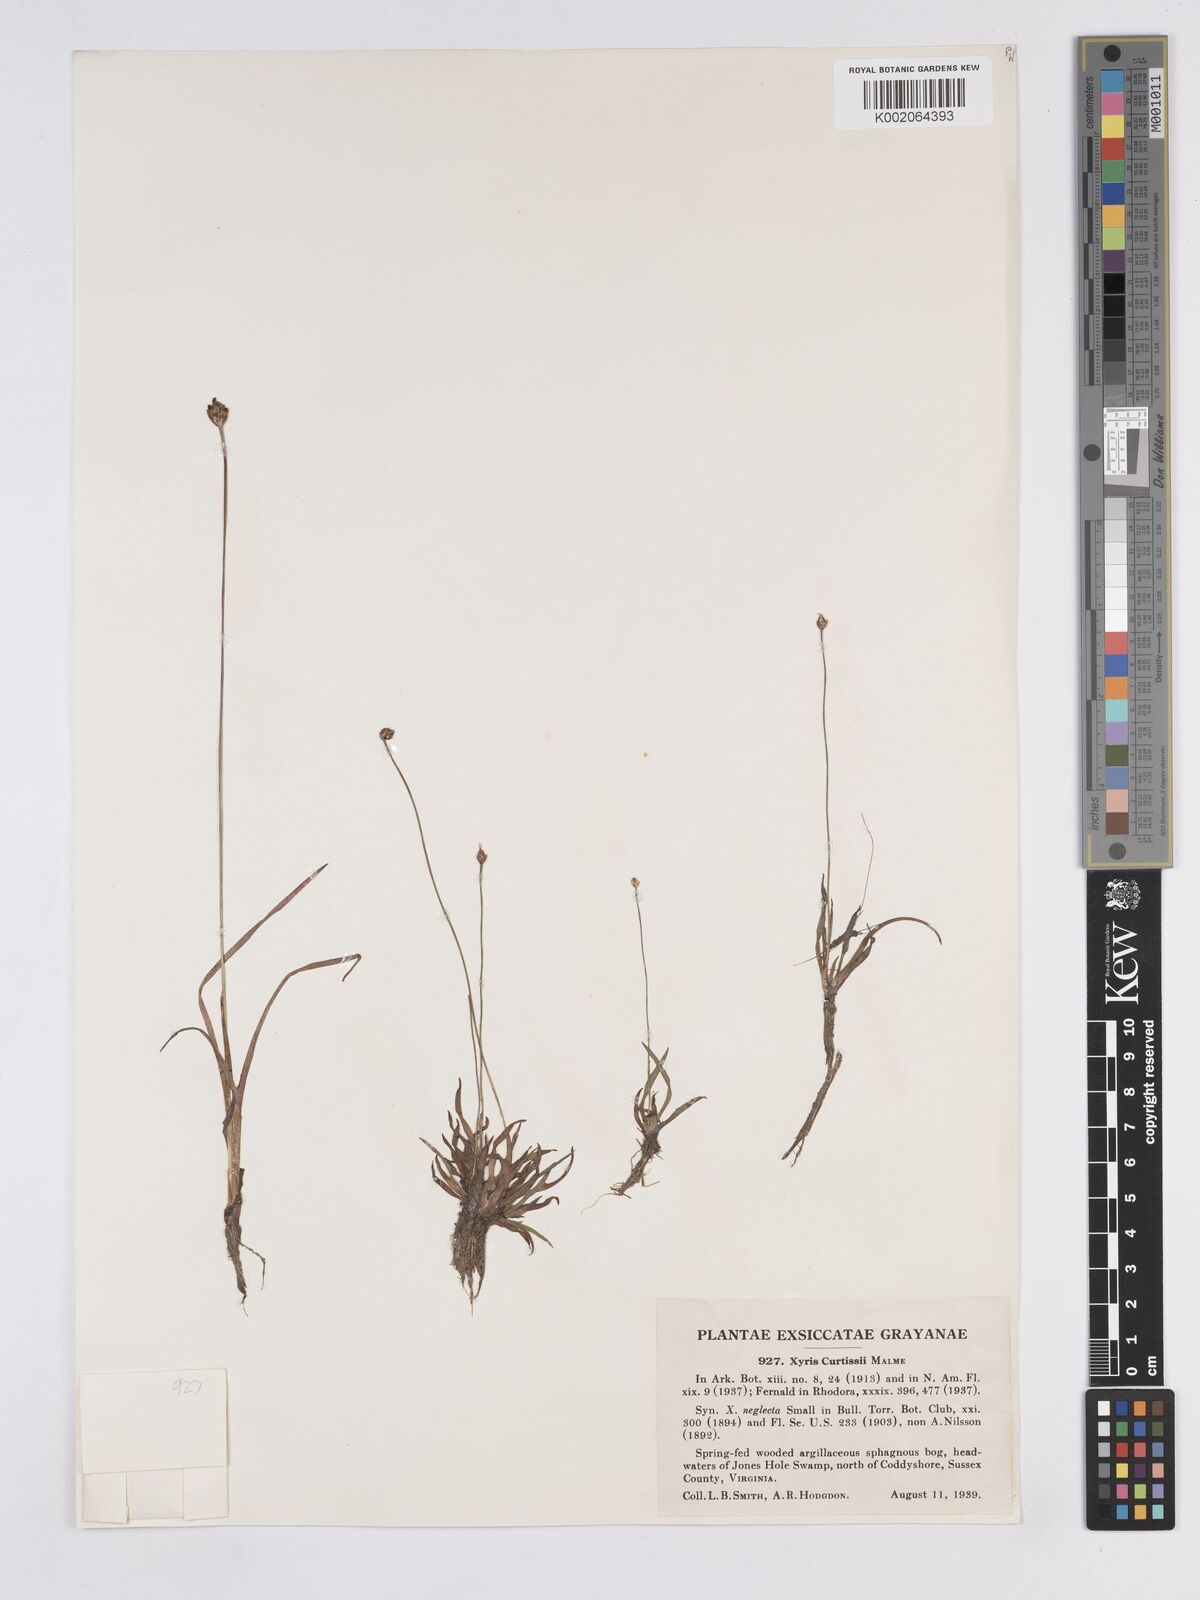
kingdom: Plantae
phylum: Tracheophyta
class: Liliopsida
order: Poales
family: Xyridaceae
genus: Xyris
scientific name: Xyris difformis
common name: Bog yellow-eyed-grass
